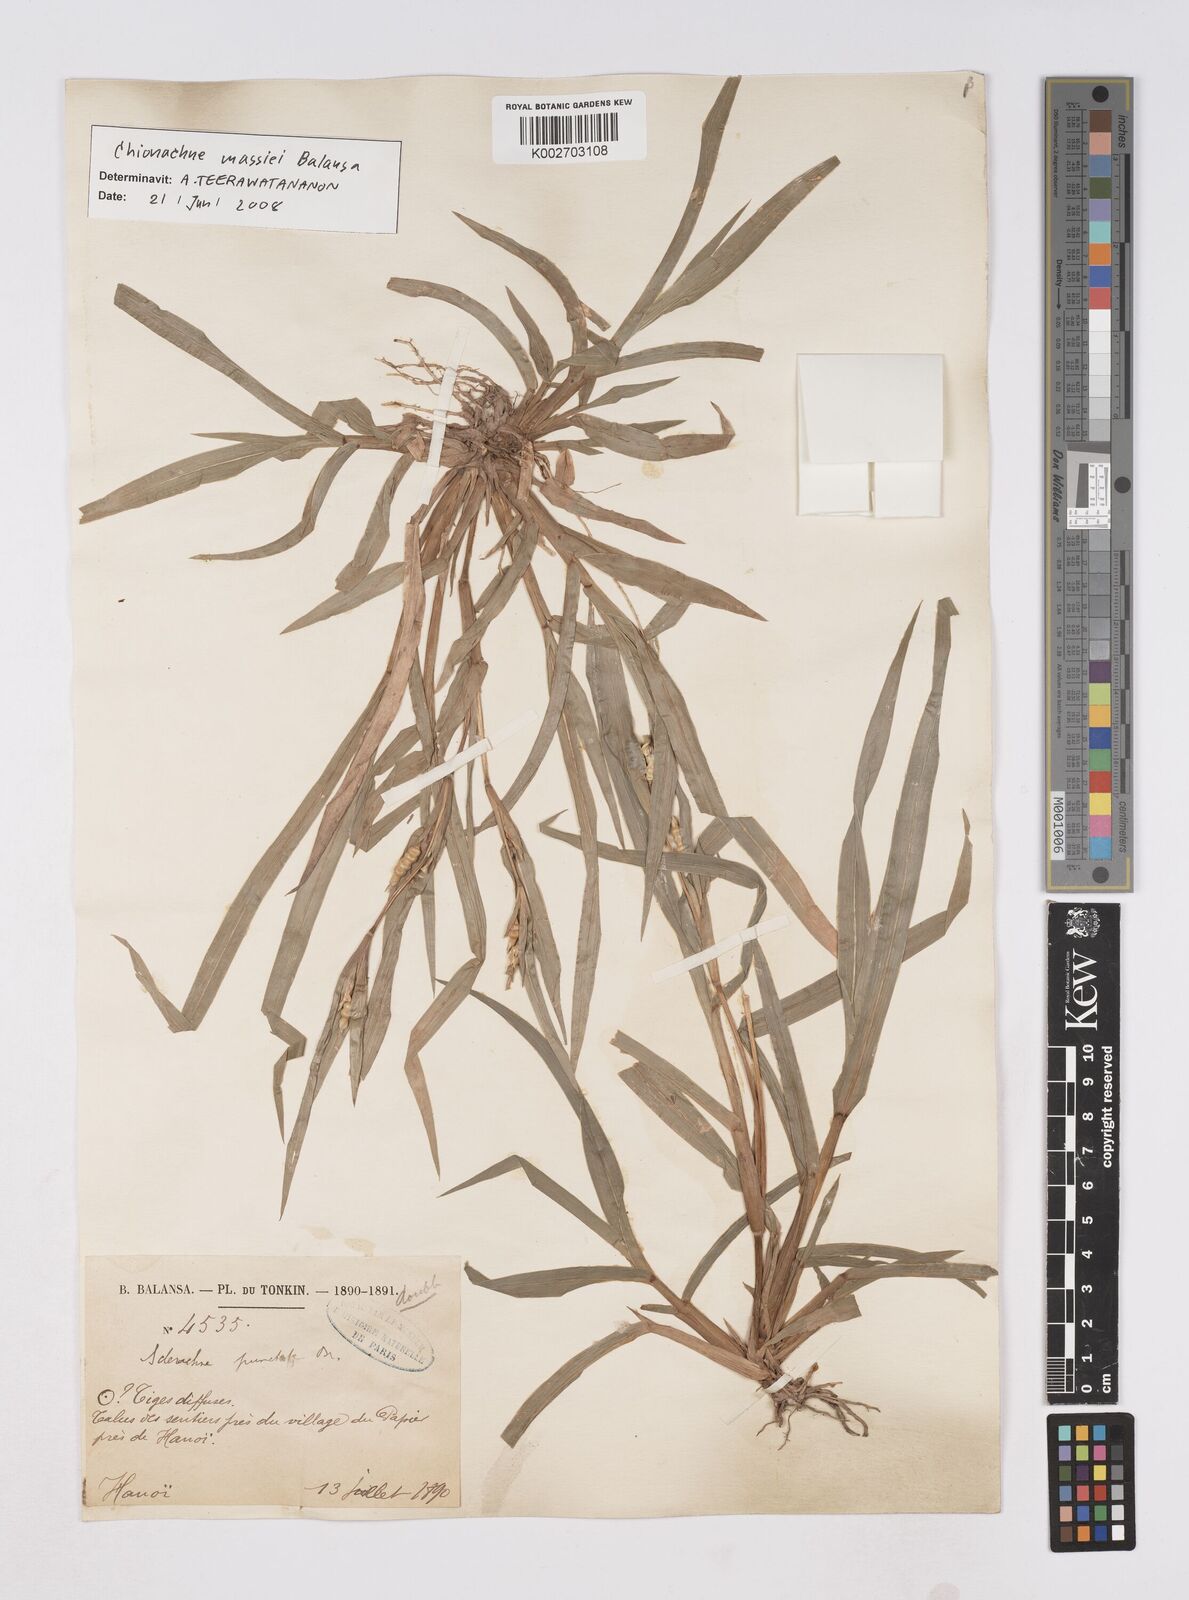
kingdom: Plantae
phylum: Tracheophyta
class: Liliopsida
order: Poales
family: Poaceae
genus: Polytoca
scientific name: Polytoca massiei
